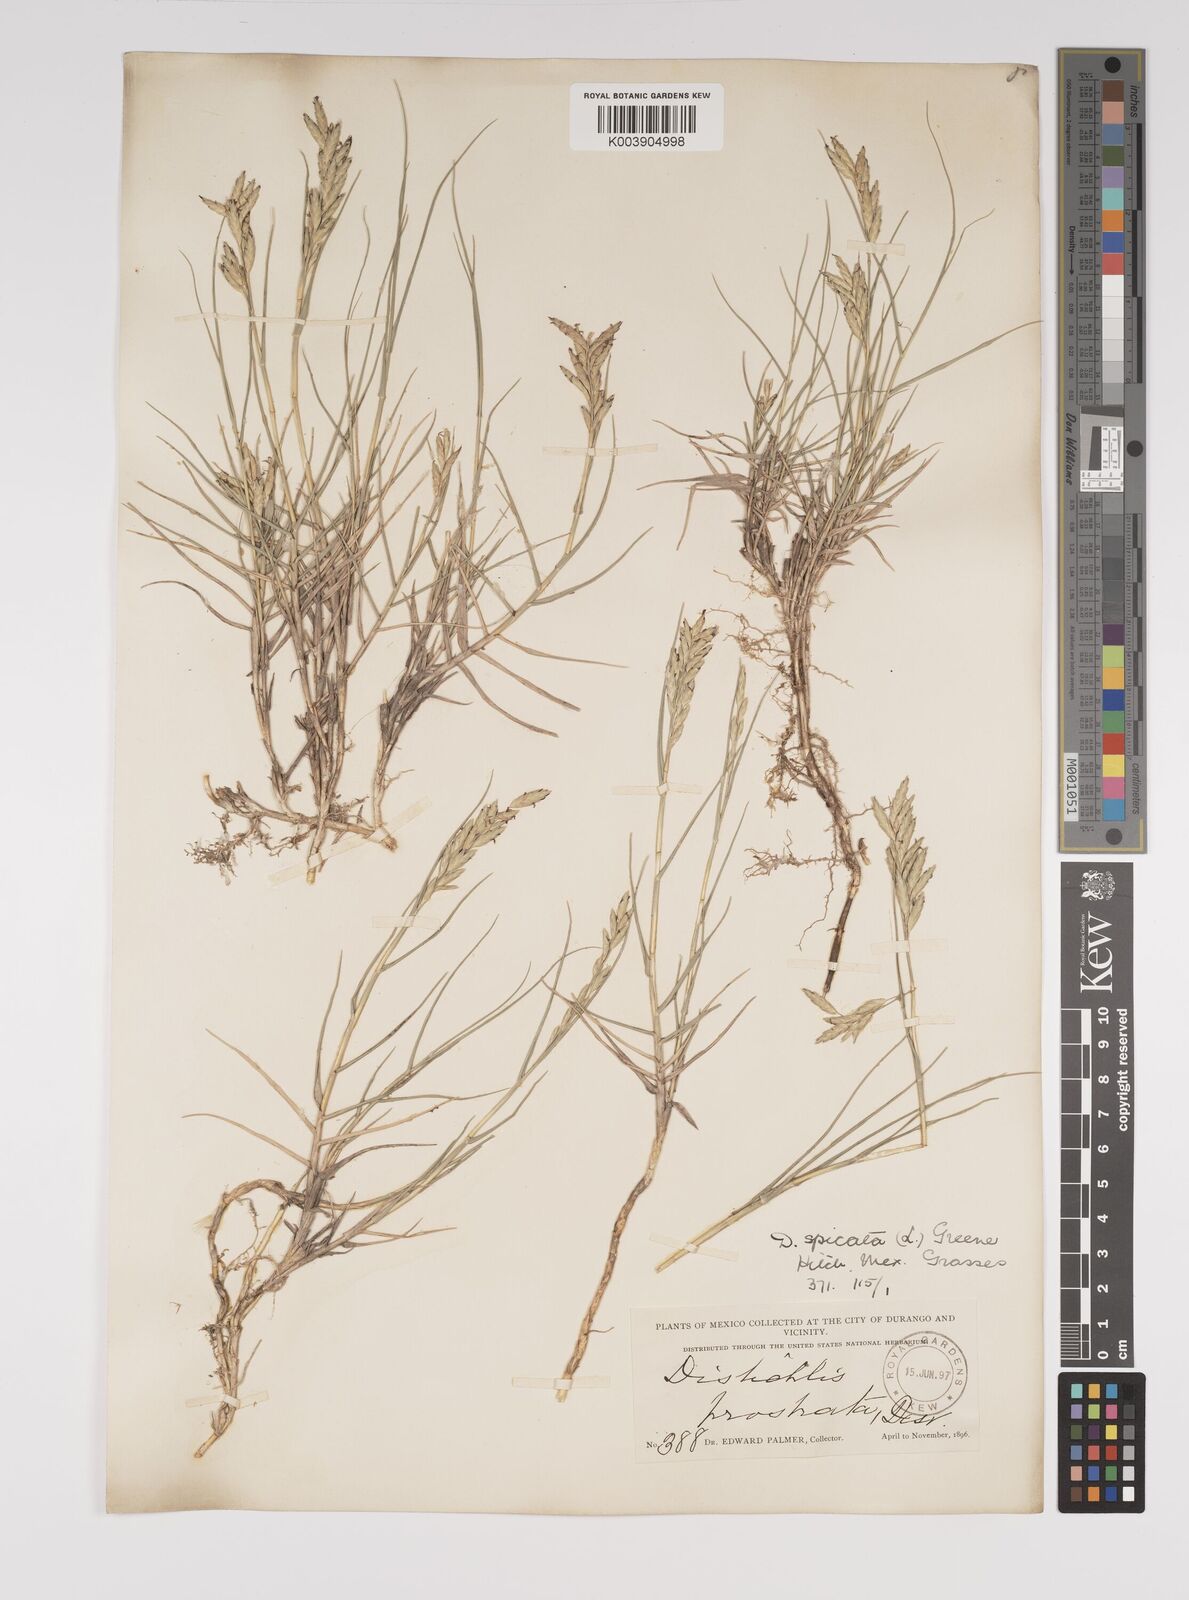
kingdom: Plantae
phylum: Tracheophyta
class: Liliopsida
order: Poales
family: Poaceae
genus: Distichlis
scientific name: Distichlis spicata
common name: Saltgrass
